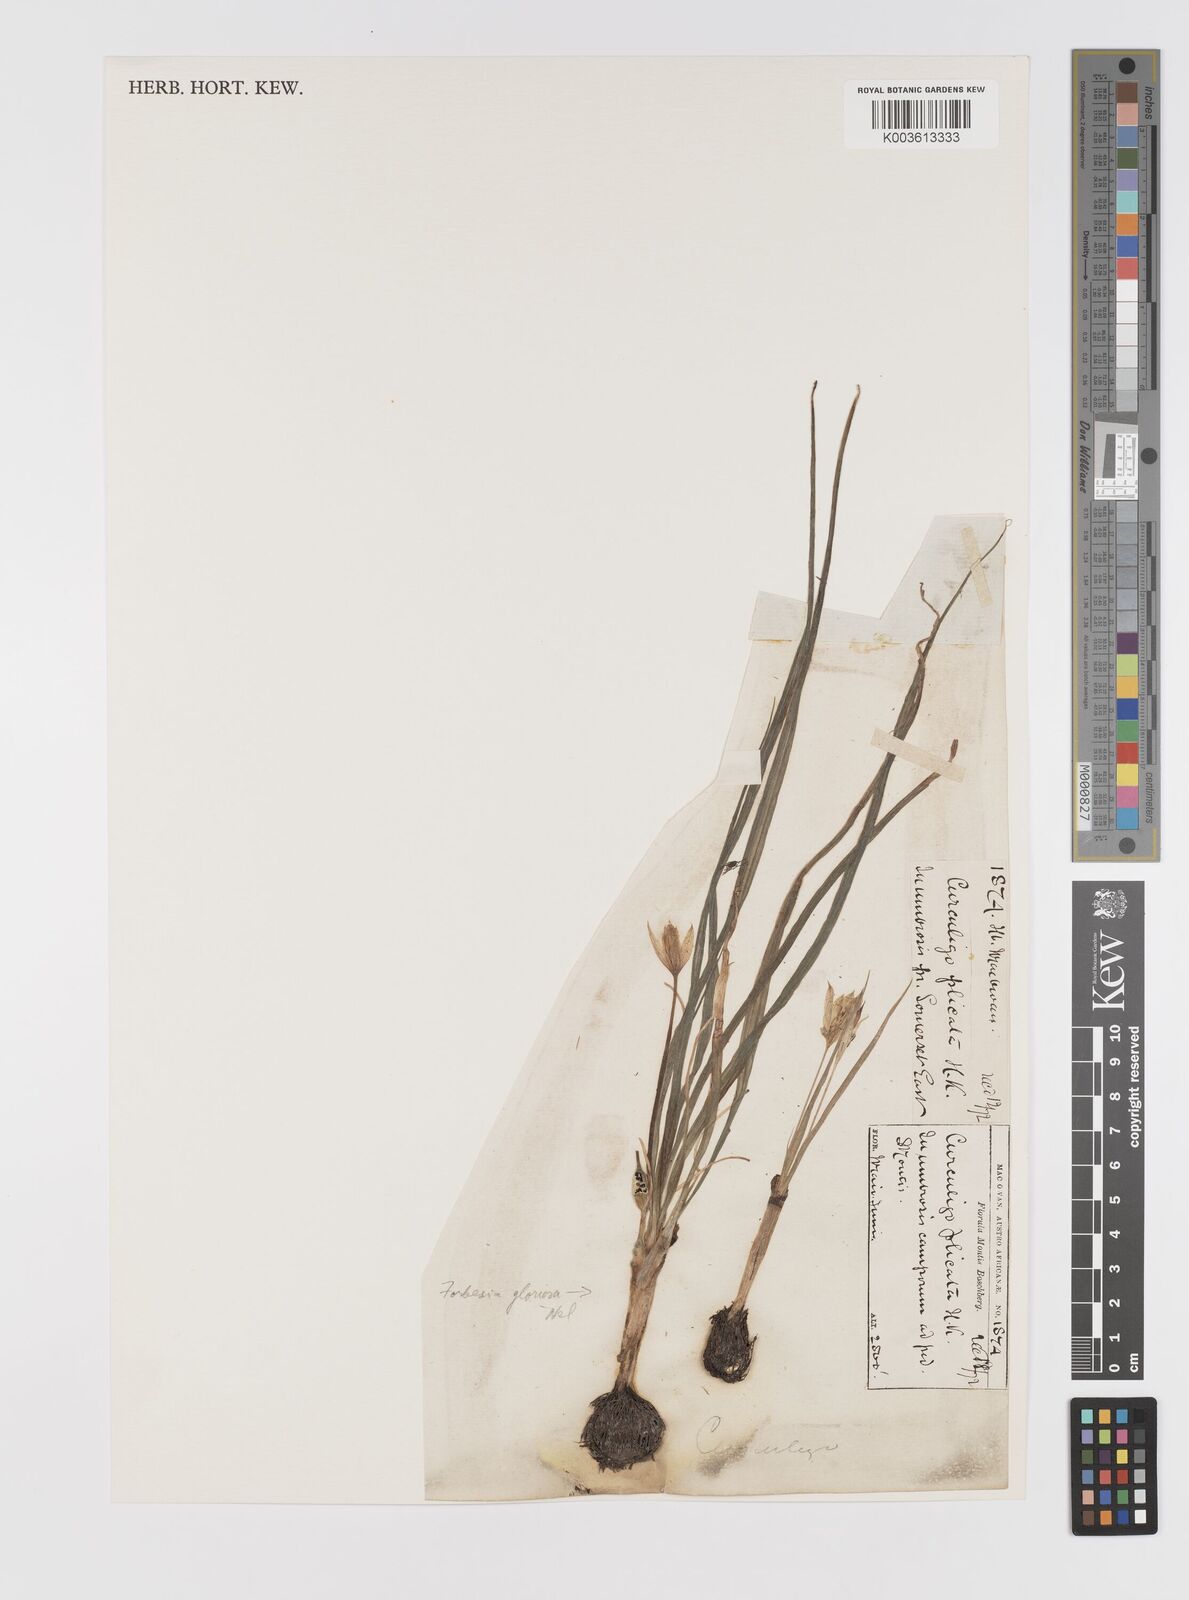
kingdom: Plantae
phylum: Tracheophyta
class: Liliopsida
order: Asparagales
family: Hypoxidaceae
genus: Empodium
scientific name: Empodium elongatum
